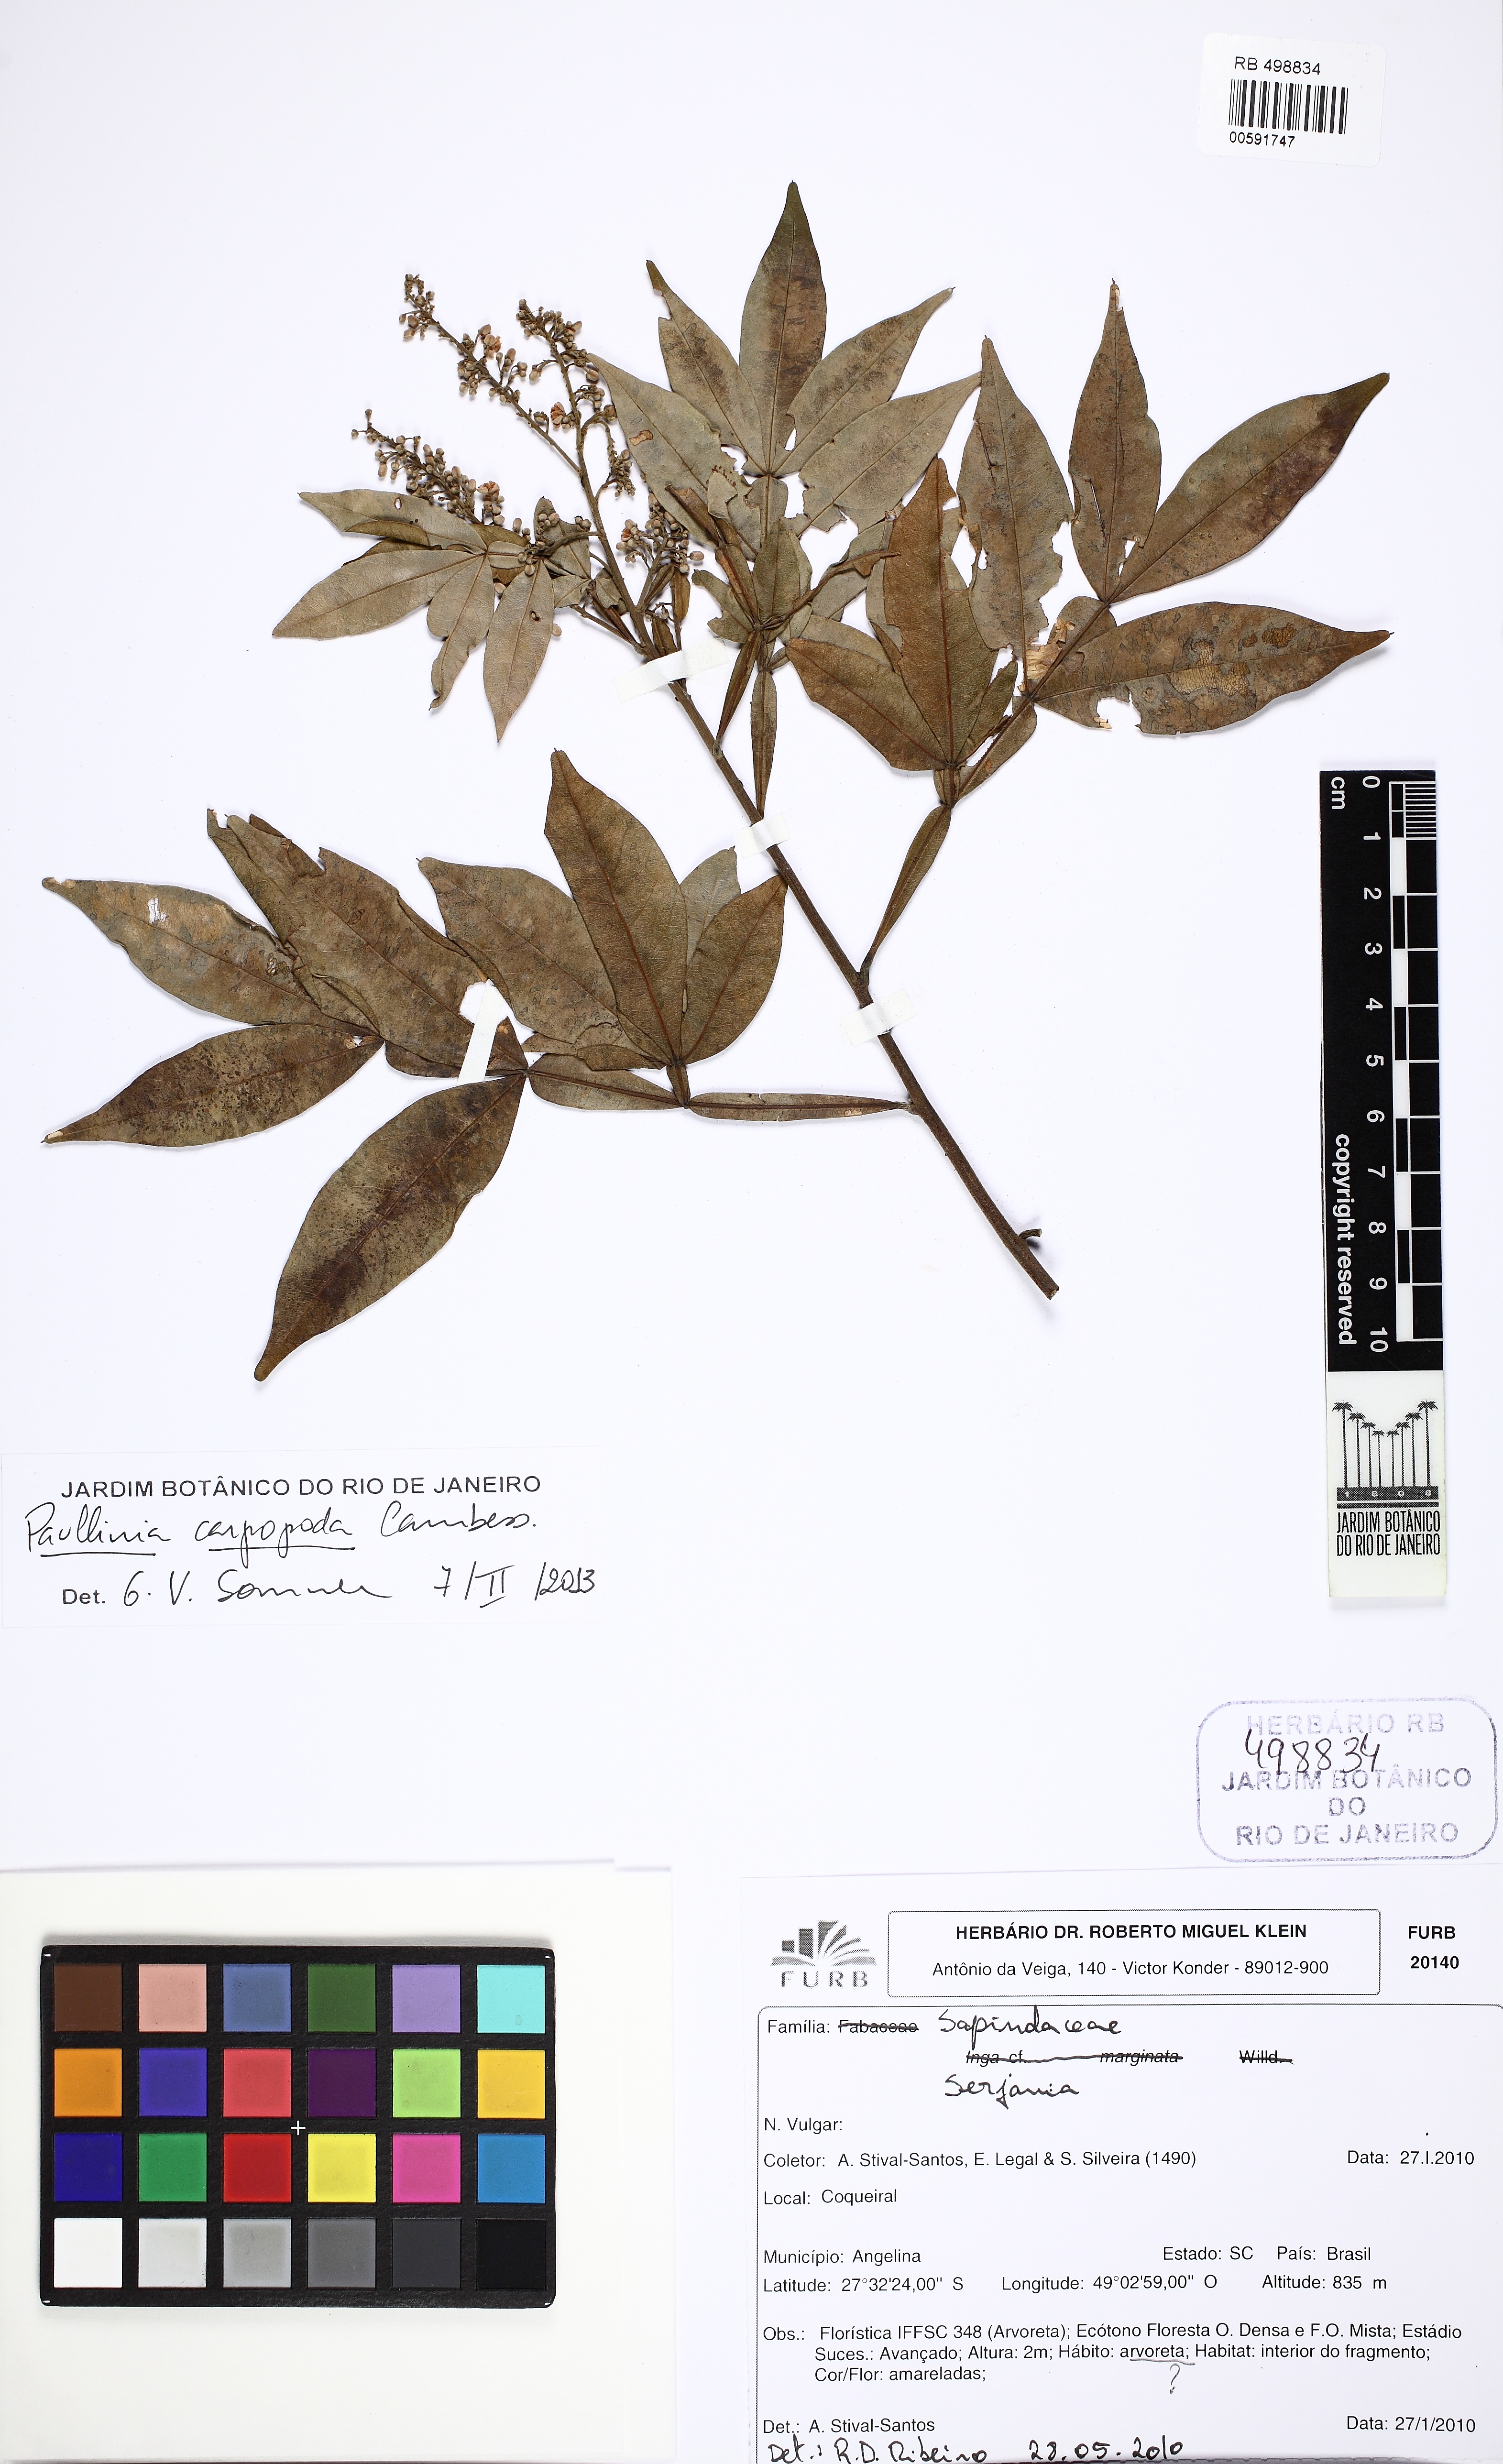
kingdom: Plantae
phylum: Tracheophyta
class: Magnoliopsida
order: Sapindales
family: Sapindaceae
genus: Paullinia
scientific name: Paullinia carpopodea
